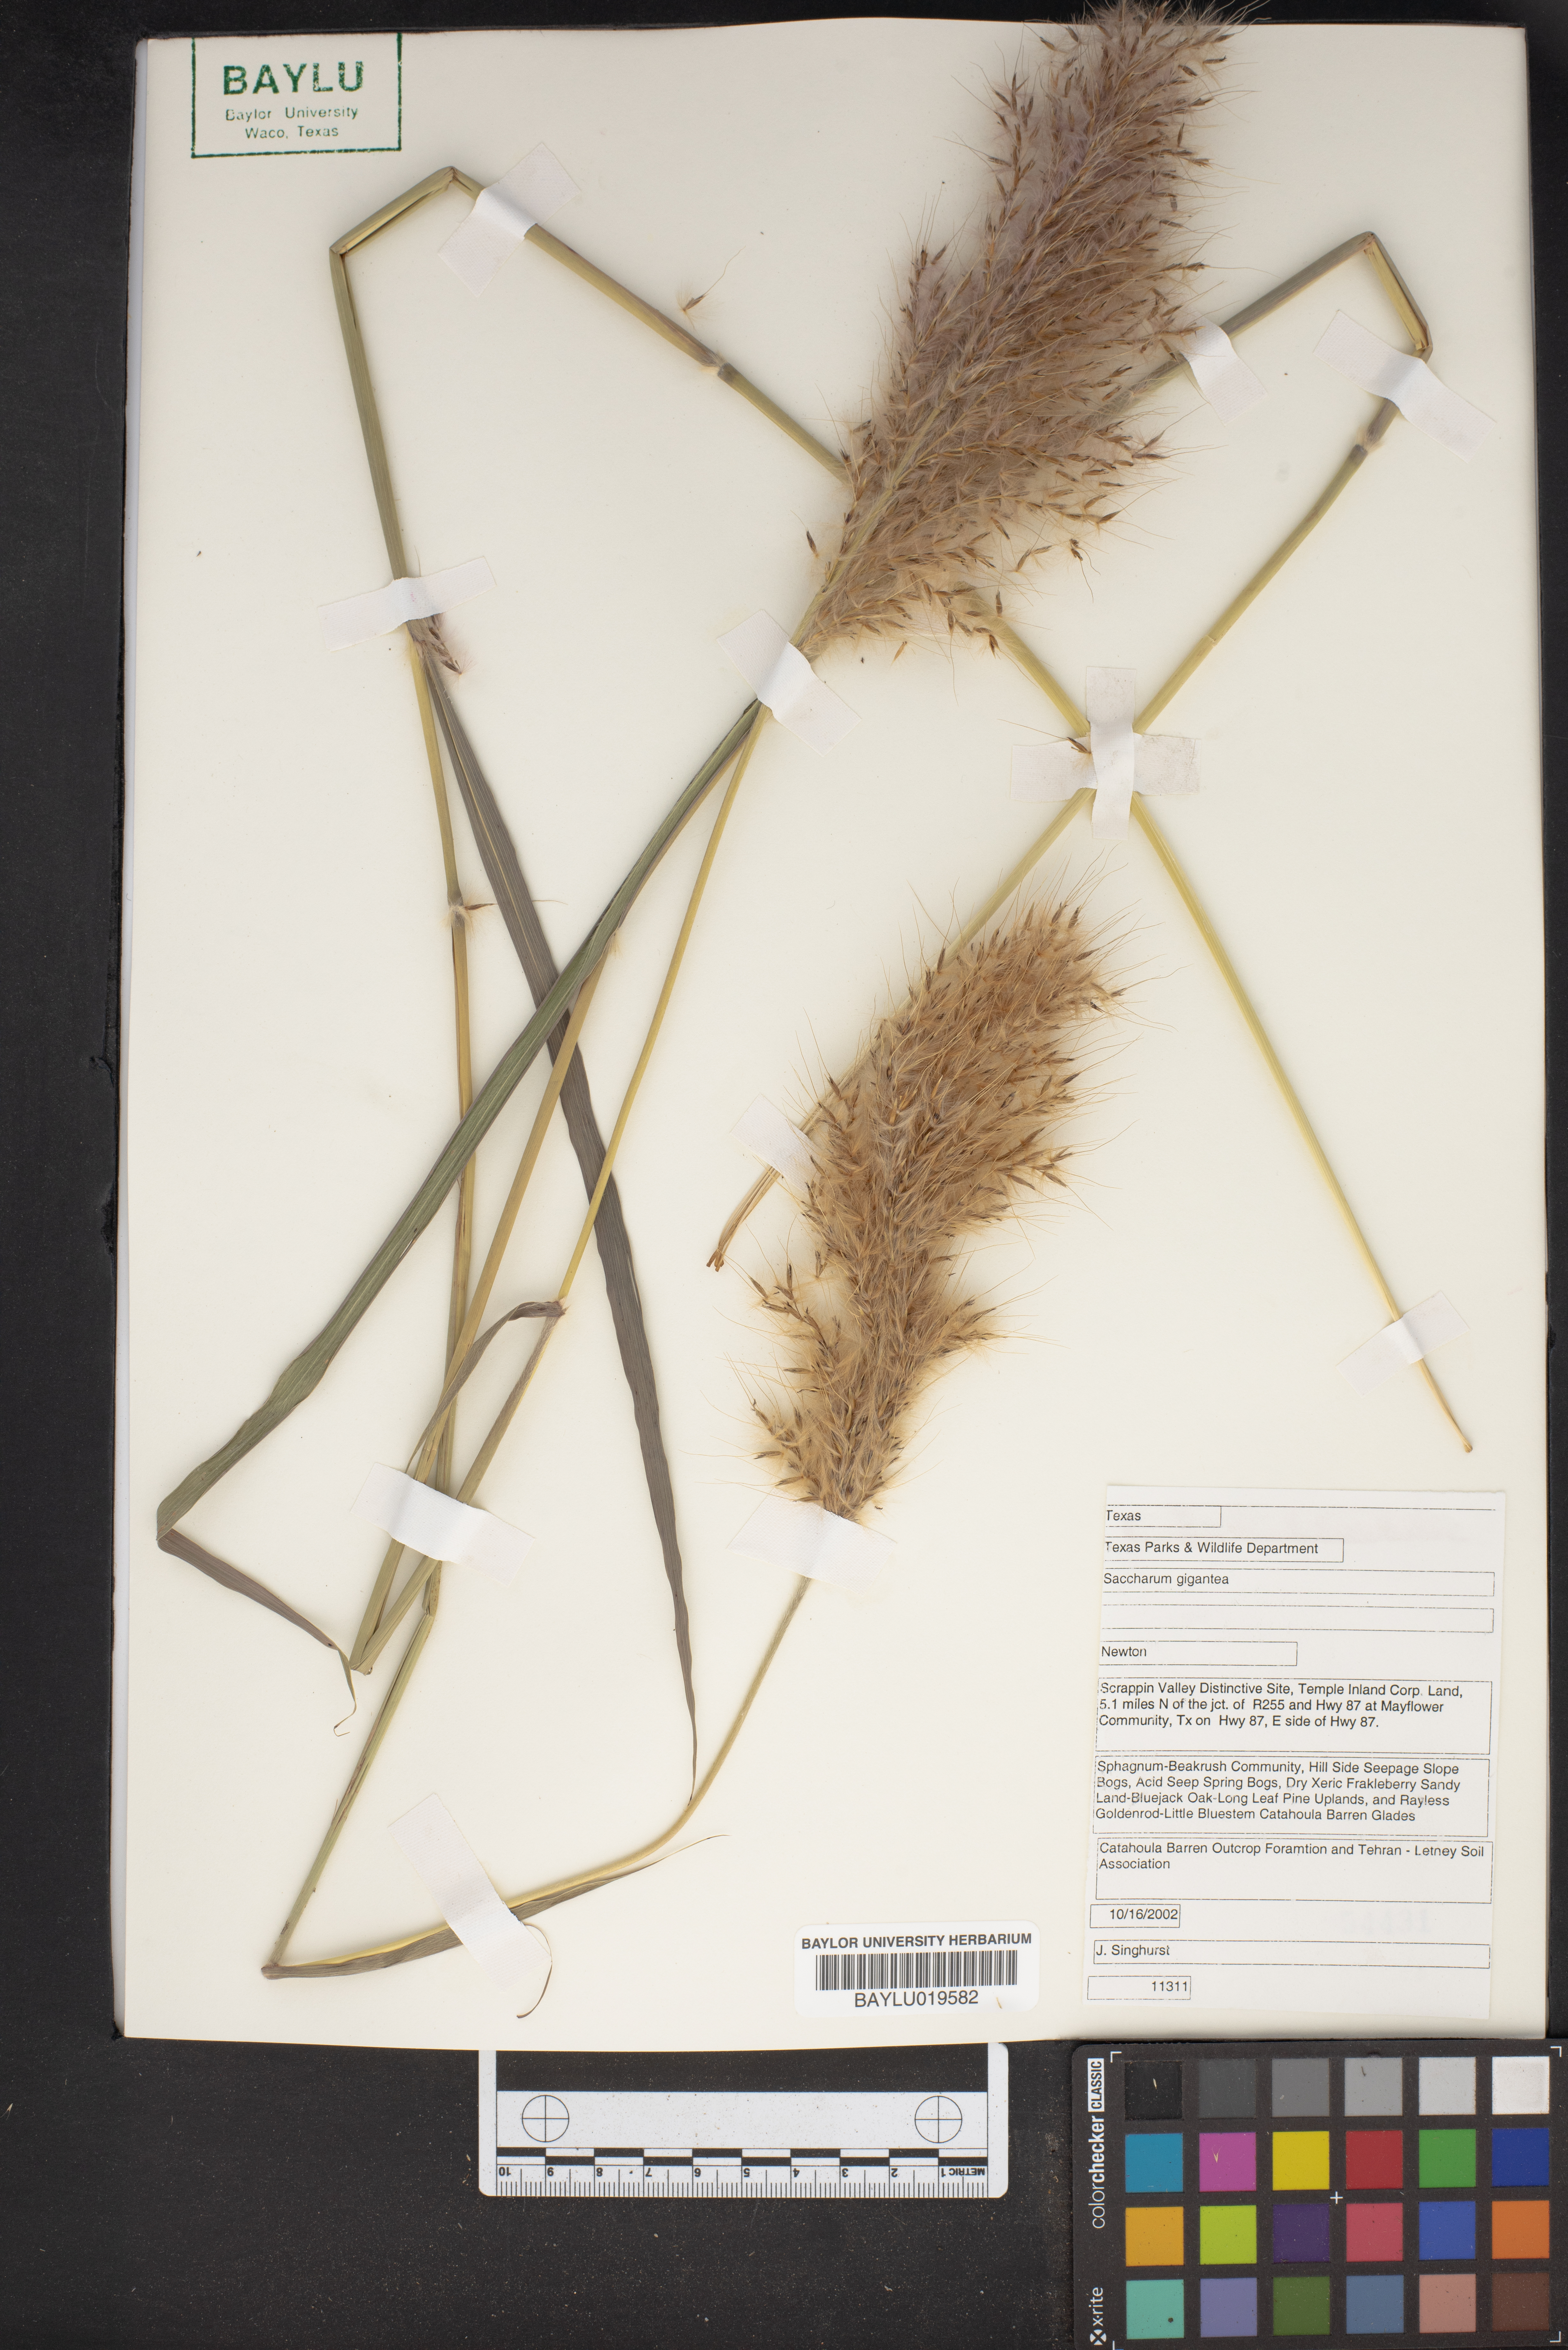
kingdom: Plantae
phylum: Tracheophyta
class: Liliopsida
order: Poales
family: Poaceae
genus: Erianthus
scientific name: Erianthus giganteus
